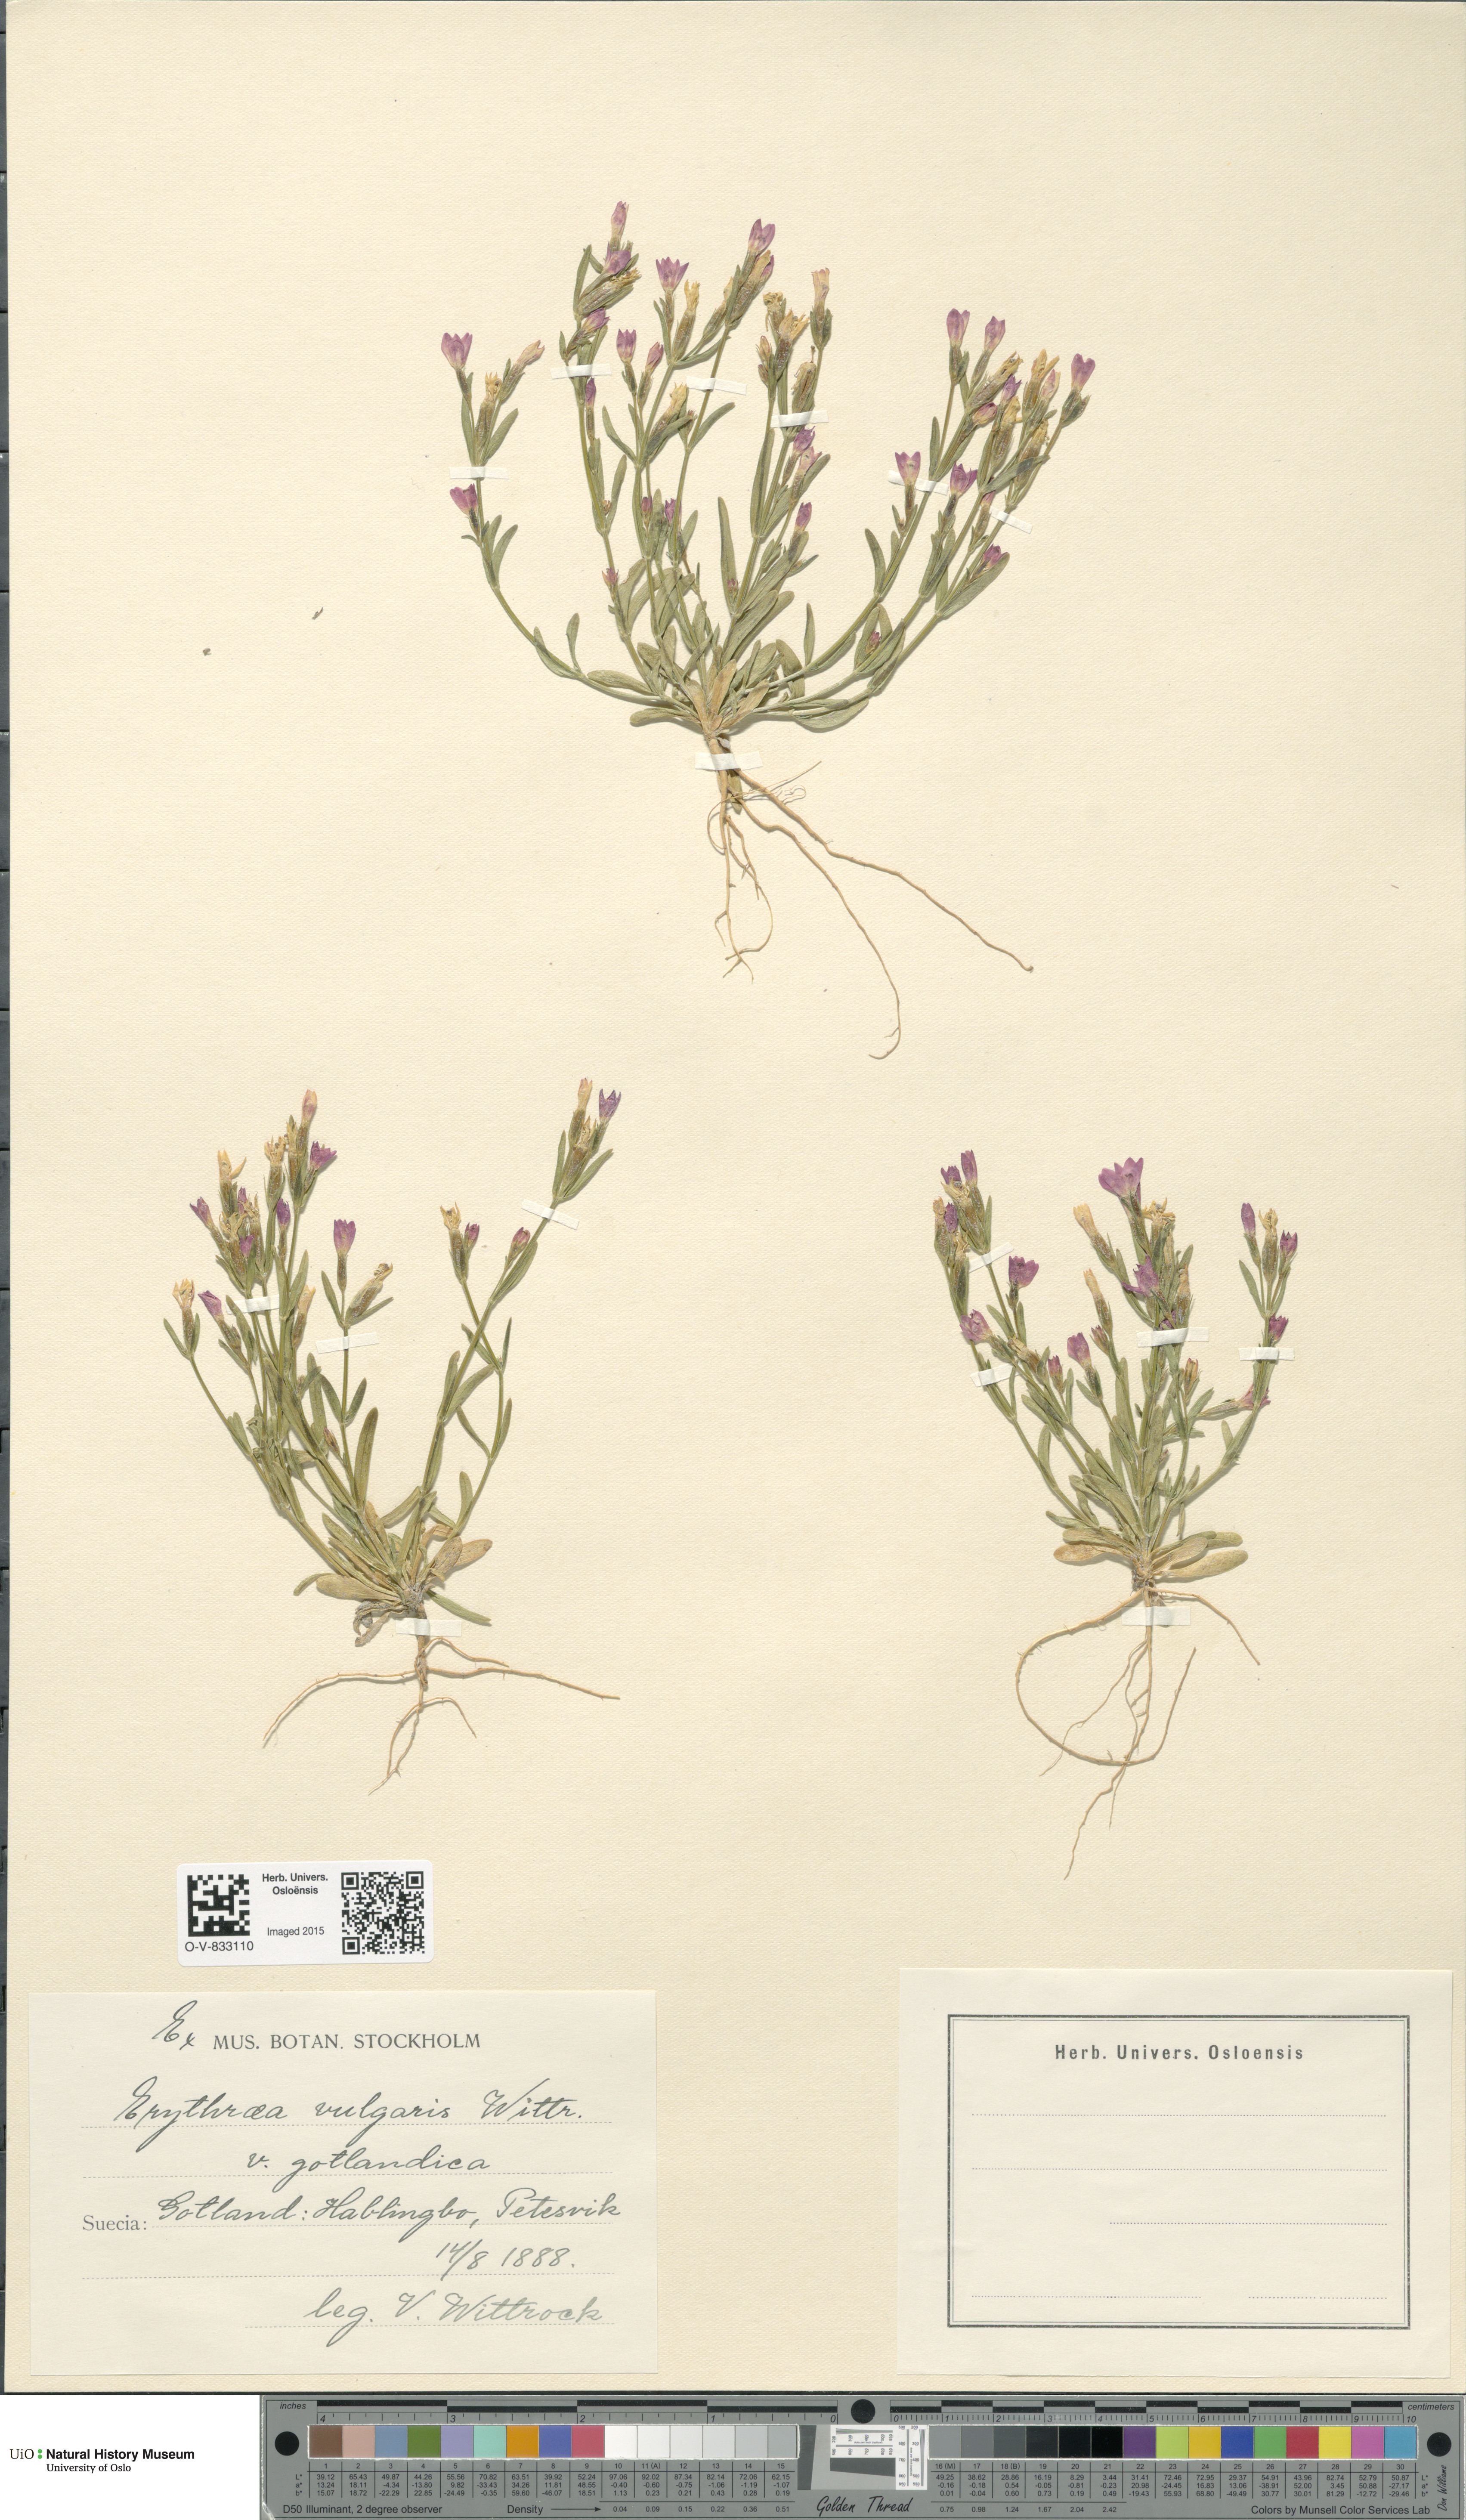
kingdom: Plantae
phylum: Tracheophyta
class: Magnoliopsida
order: Gentianales
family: Gentianaceae
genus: Centaurium
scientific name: Centaurium littorale
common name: Seaside centaury
